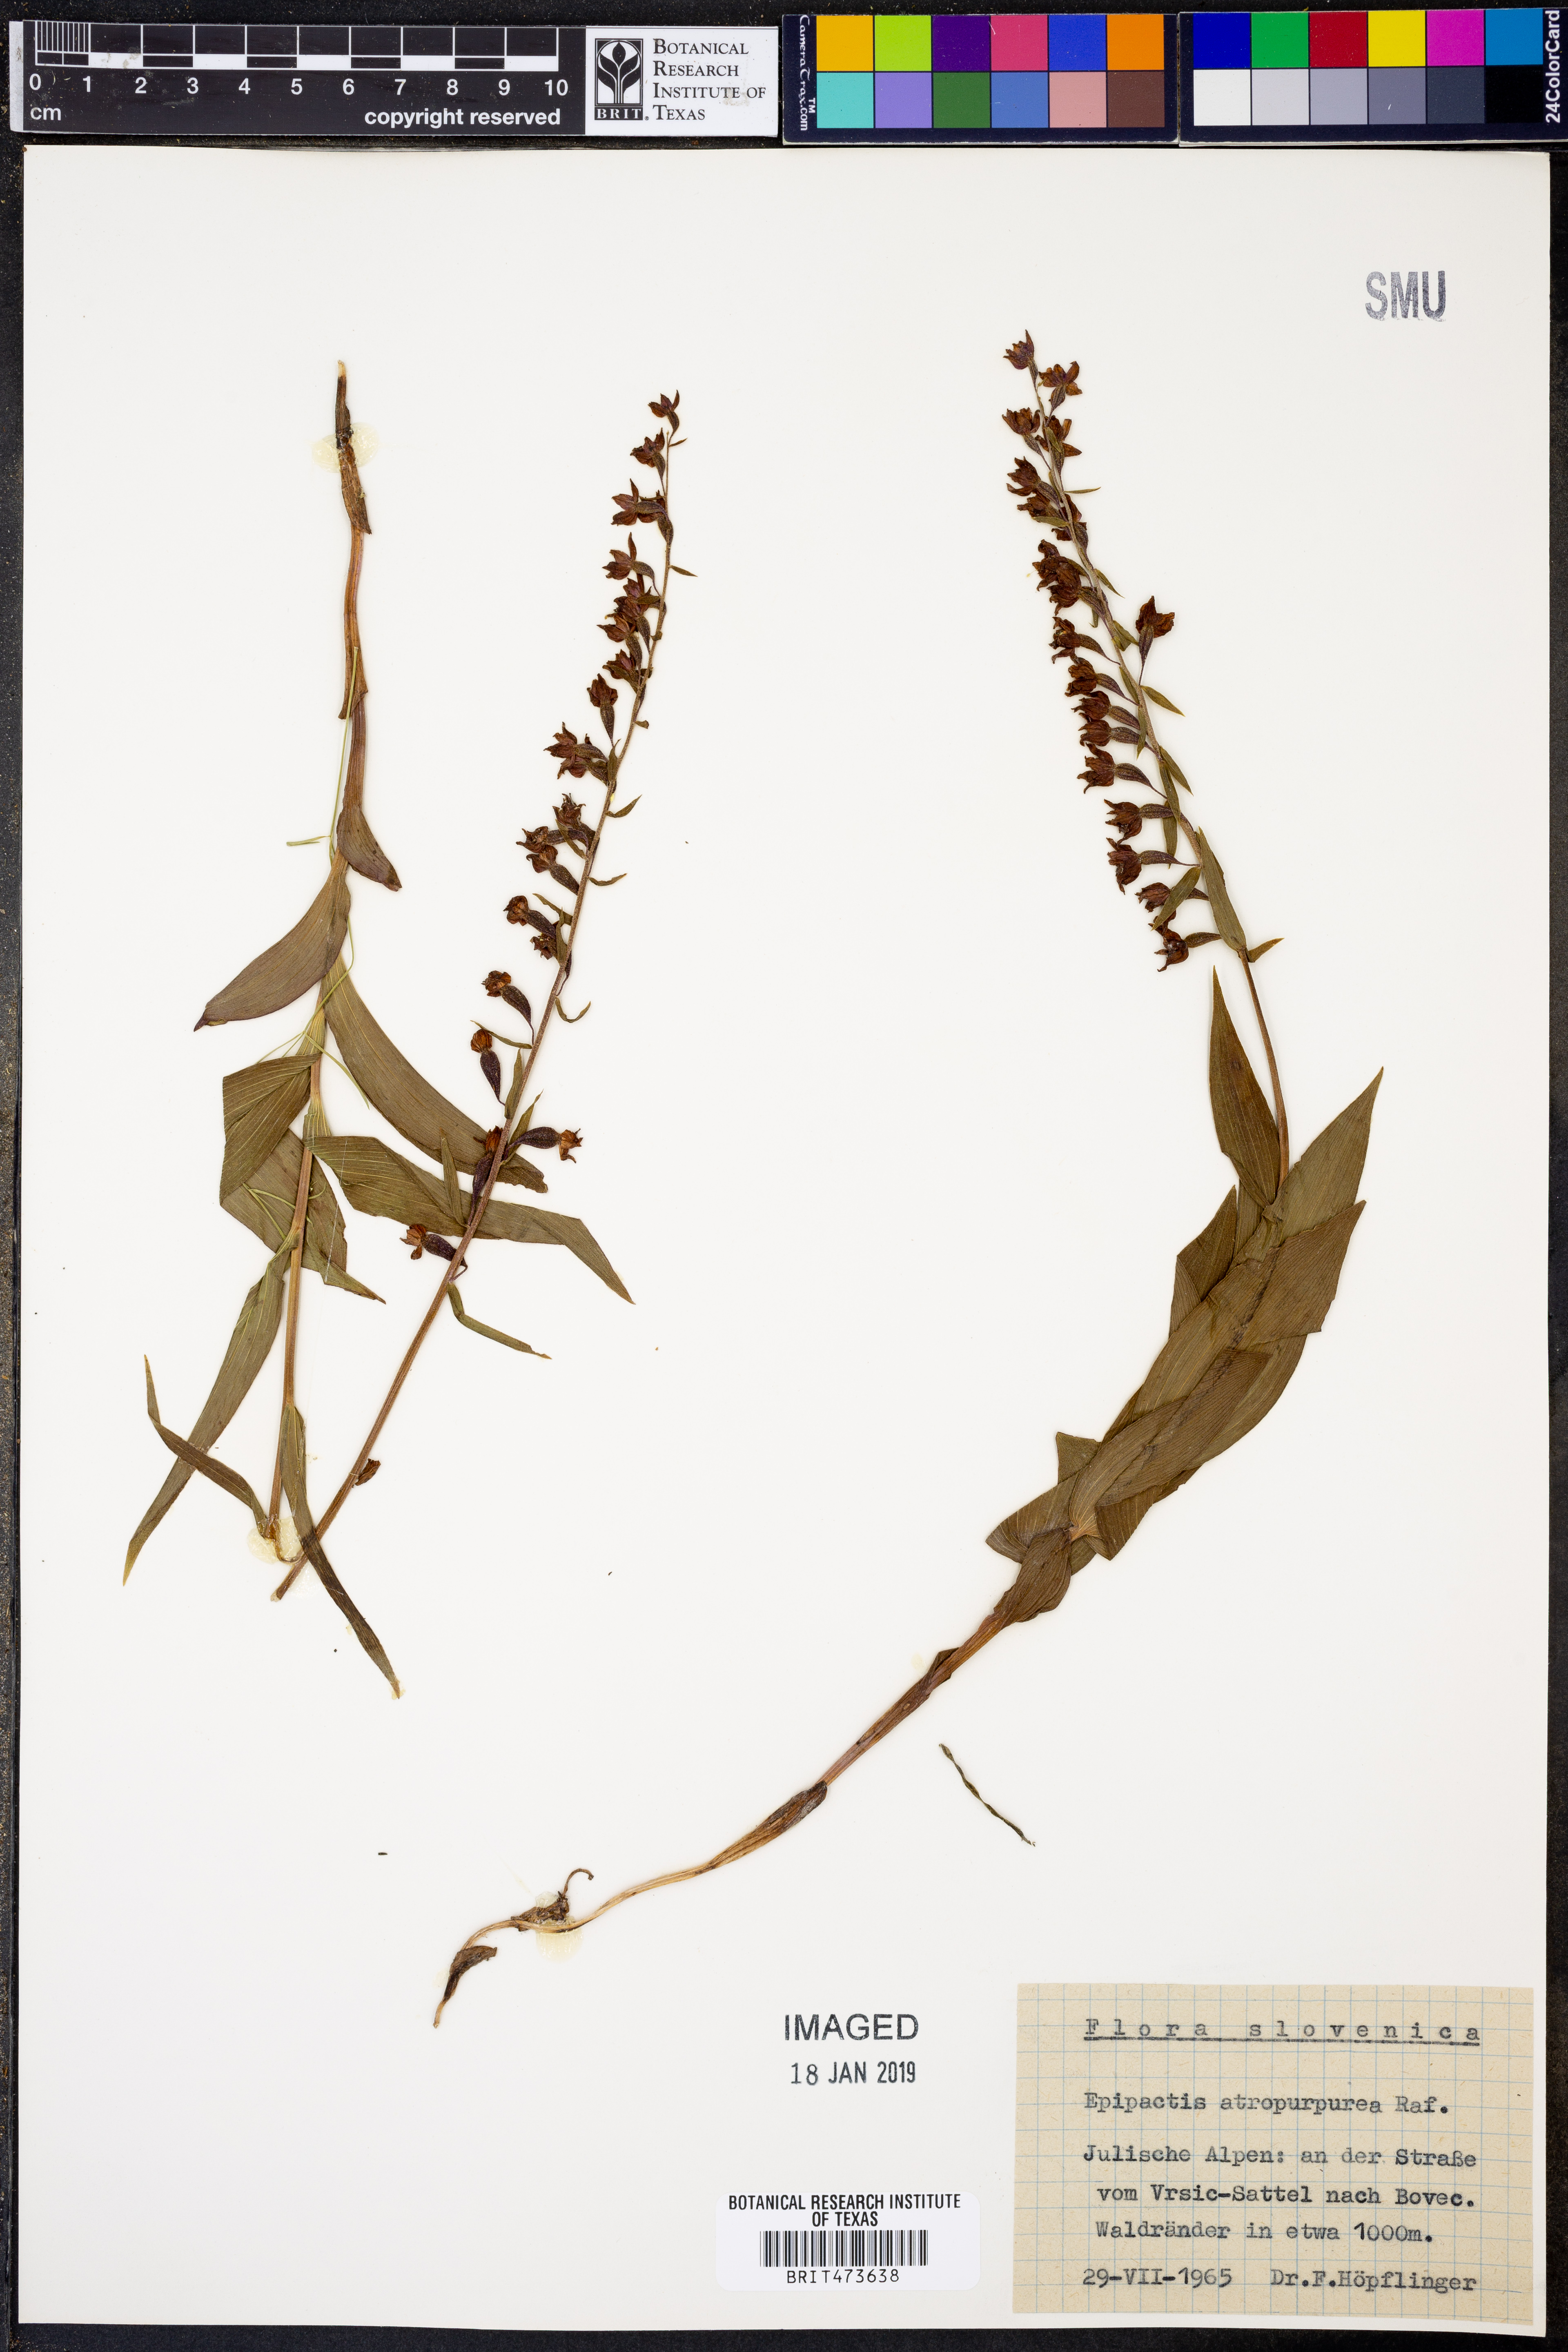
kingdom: Plantae
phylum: Tracheophyta
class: Liliopsida
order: Asparagales
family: Orchidaceae
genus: Epipactis
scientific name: Epipactis atrorubens
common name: Dark-red helleborine
